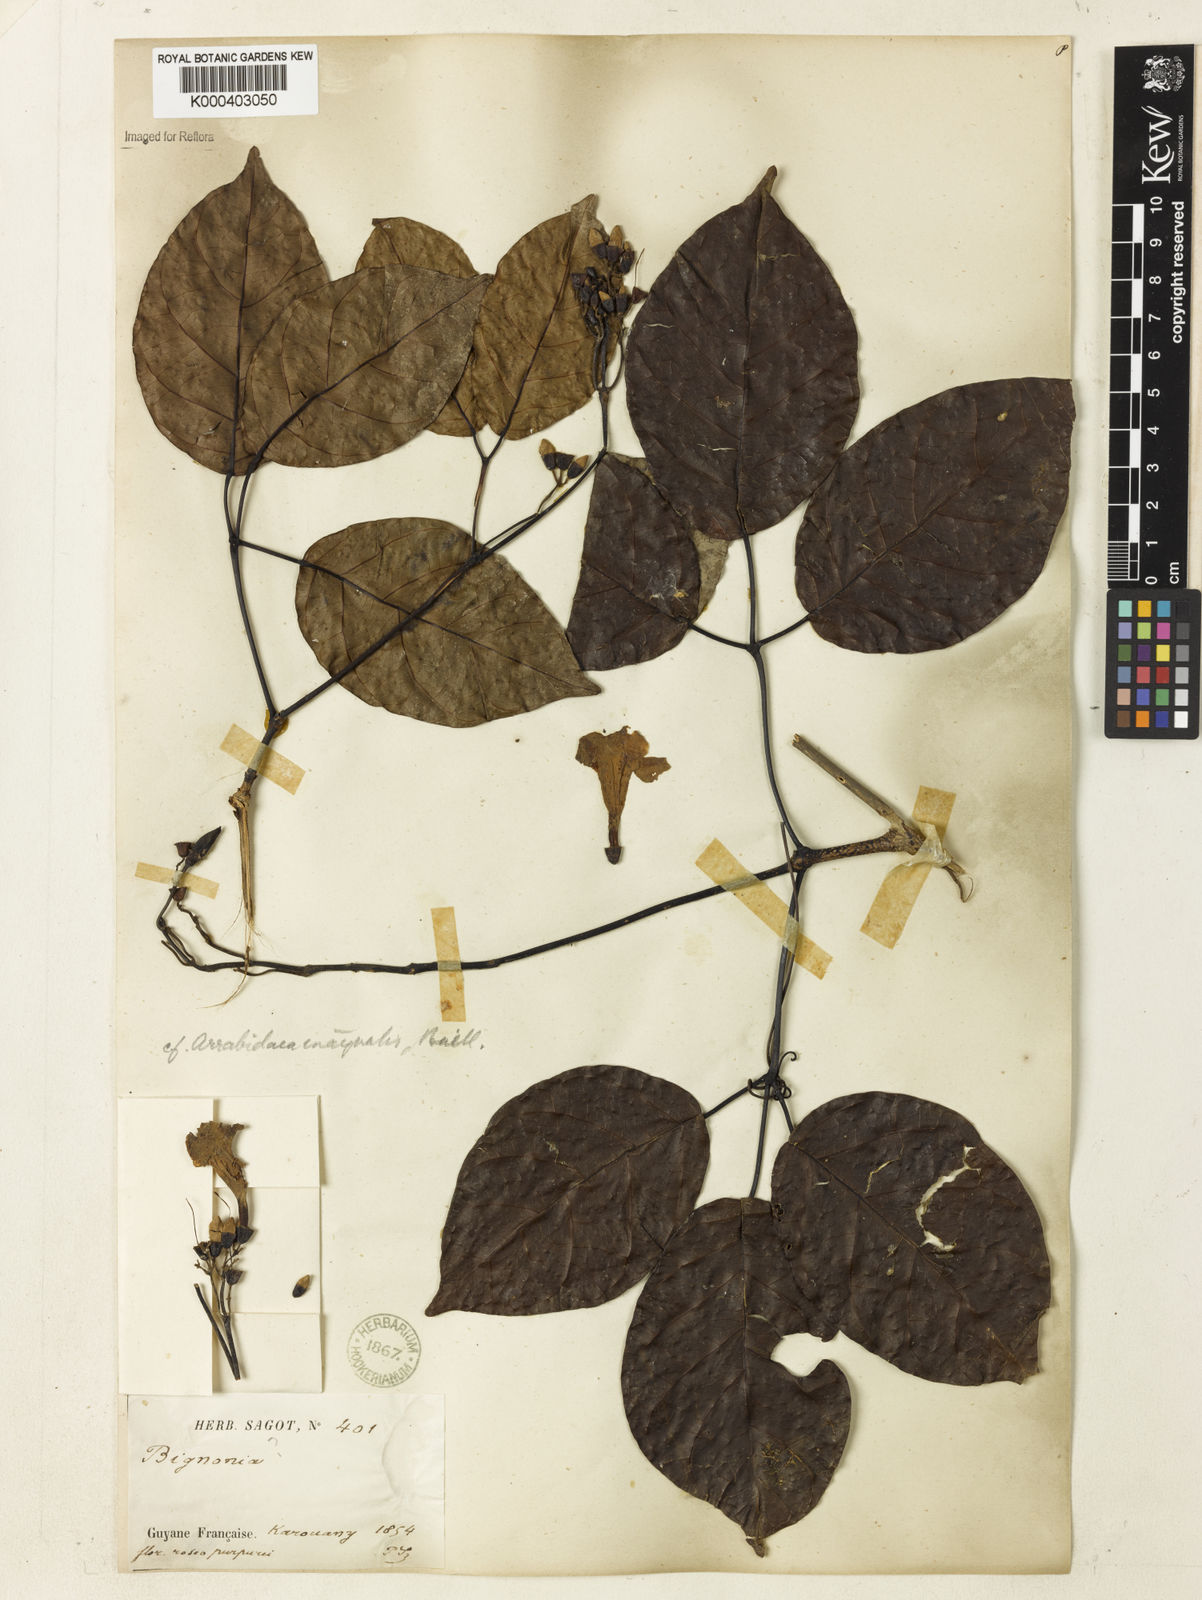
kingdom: Plantae
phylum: Tracheophyta
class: Magnoliopsida
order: Lamiales
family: Bignoniaceae
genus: Cuspidaria
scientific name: Cuspidaria inaequalis
